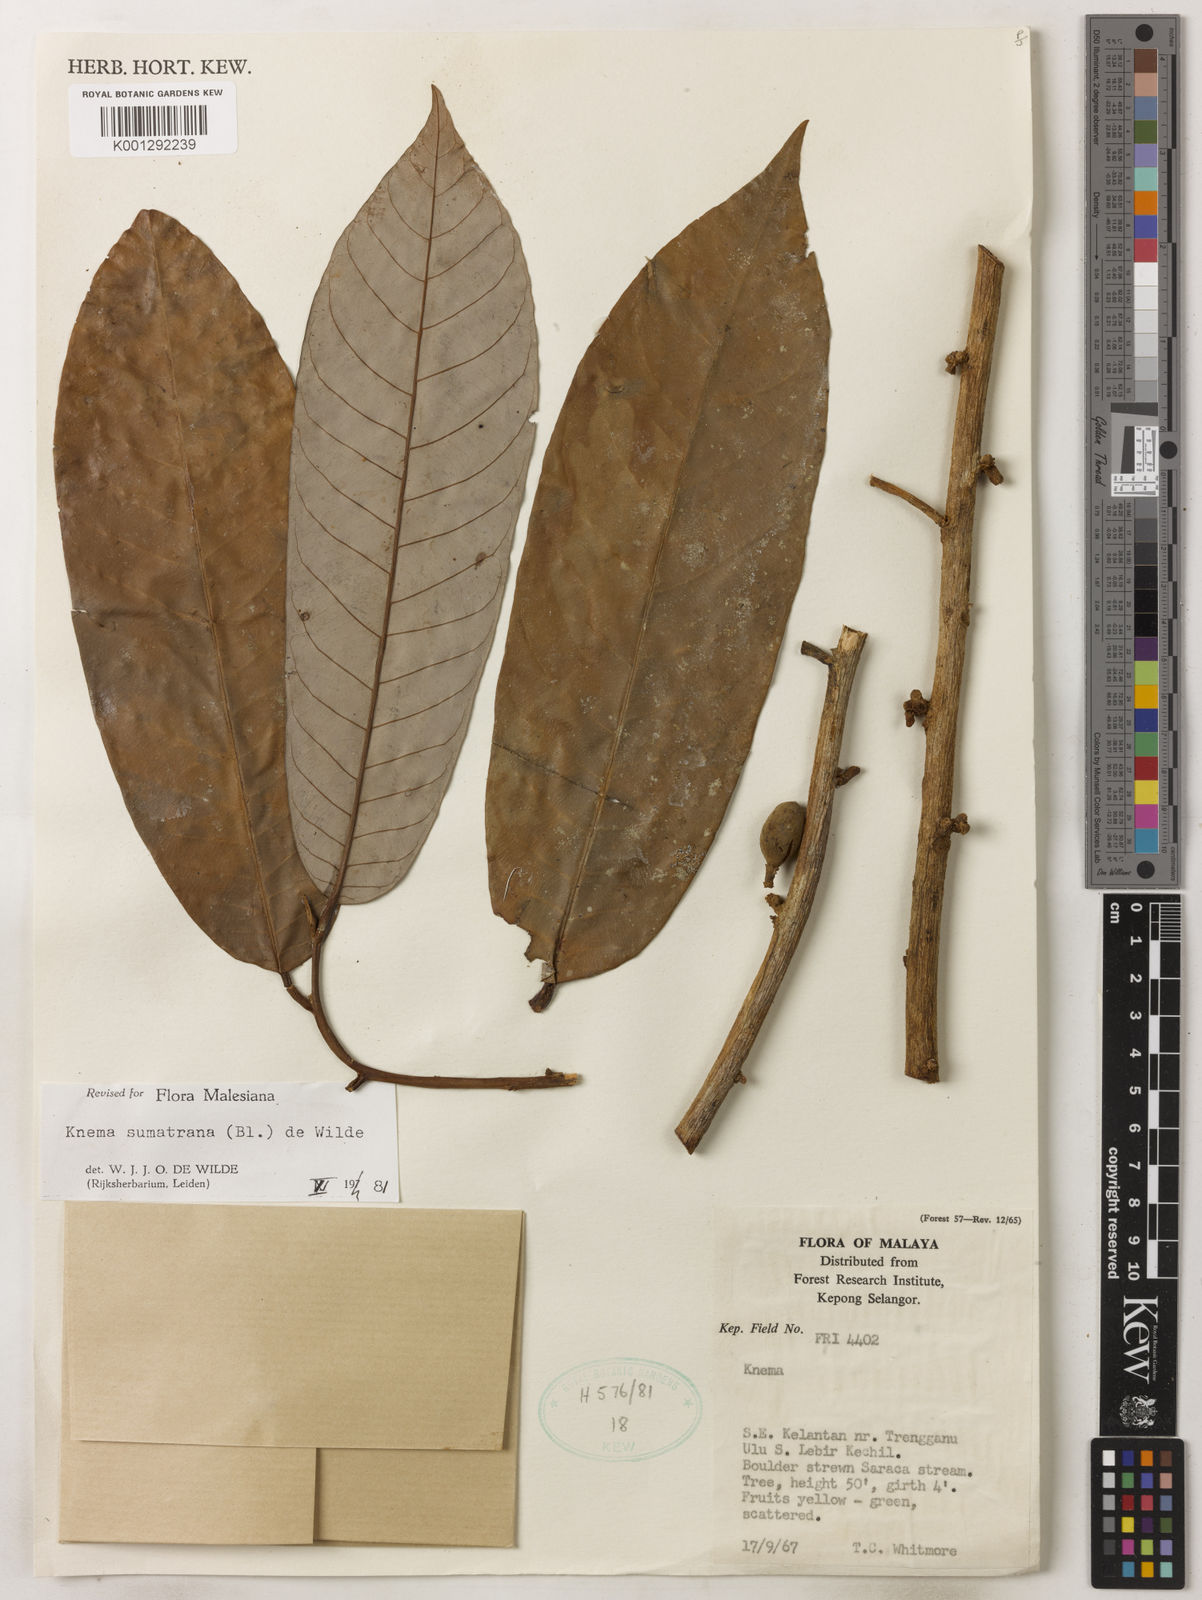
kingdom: Plantae
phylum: Tracheophyta
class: Magnoliopsida
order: Magnoliales
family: Myristicaceae
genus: Knema
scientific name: Knema sumatrana
